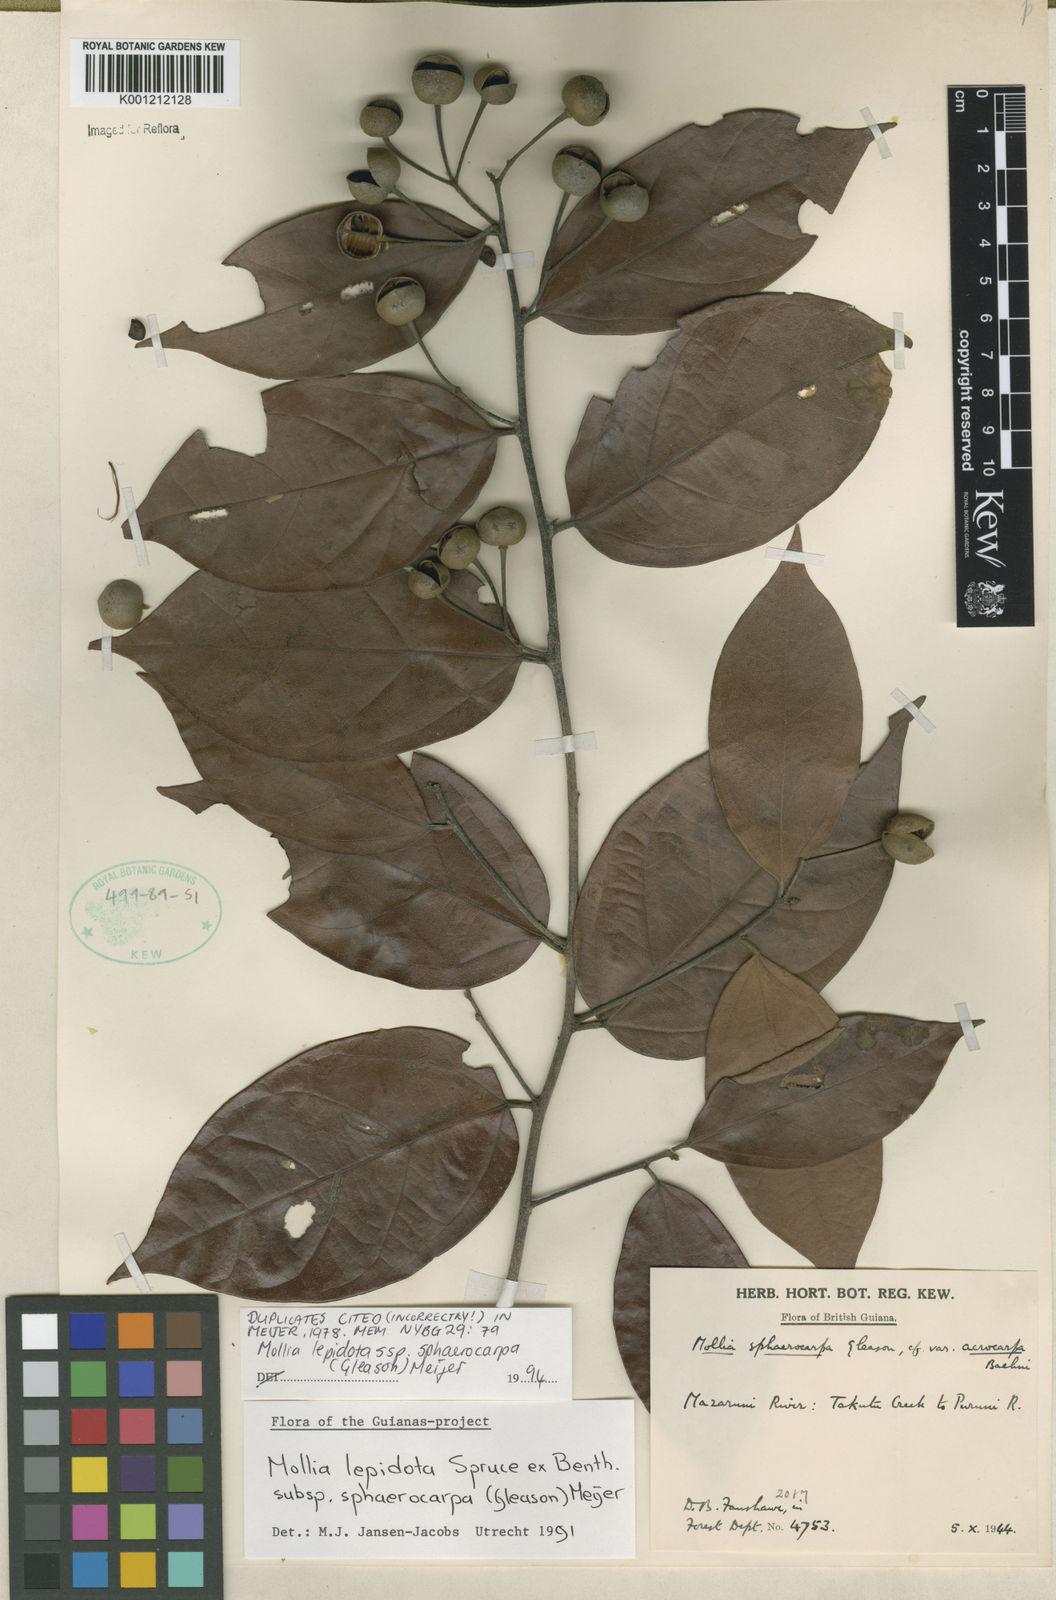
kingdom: Plantae
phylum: Tracheophyta
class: Magnoliopsida
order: Malvales
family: Malvaceae
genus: Mollia
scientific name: Mollia lepidota
